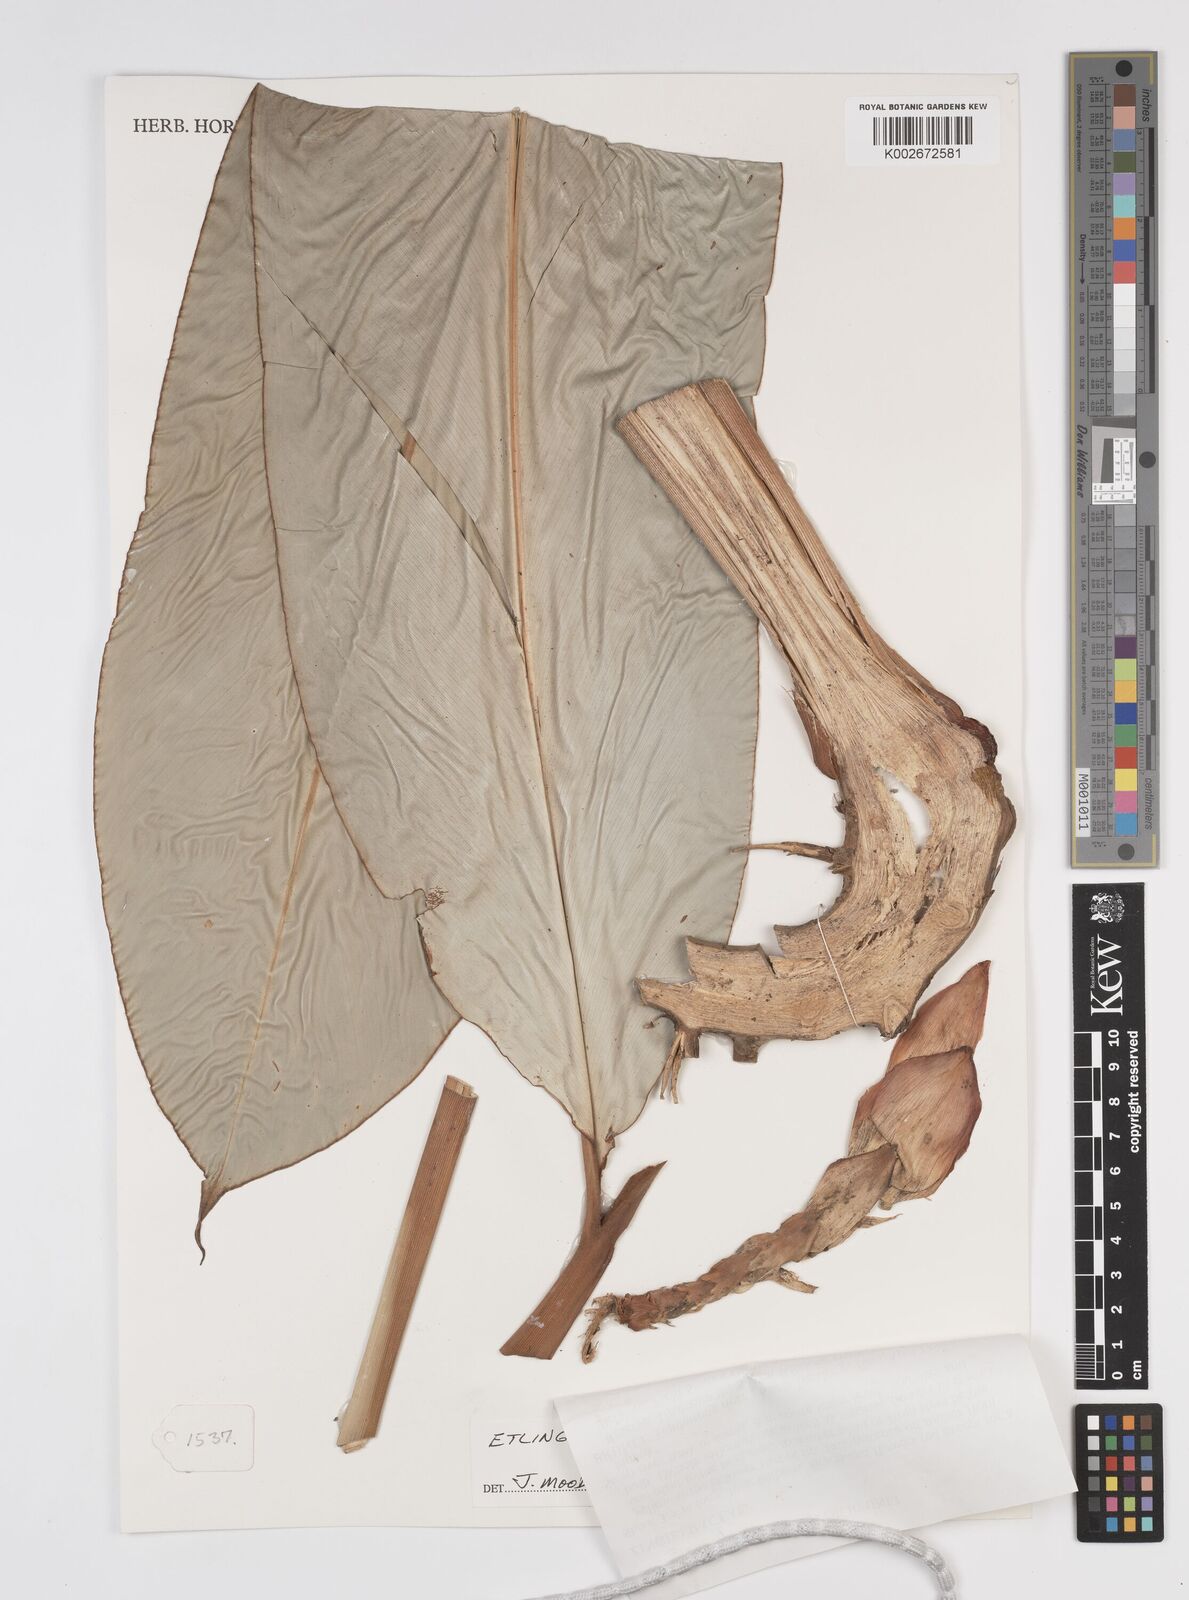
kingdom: Plantae
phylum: Tracheophyta
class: Liliopsida
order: Zingiberales
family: Zingiberaceae
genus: Etlingera
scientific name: Etlingera belalongensis
